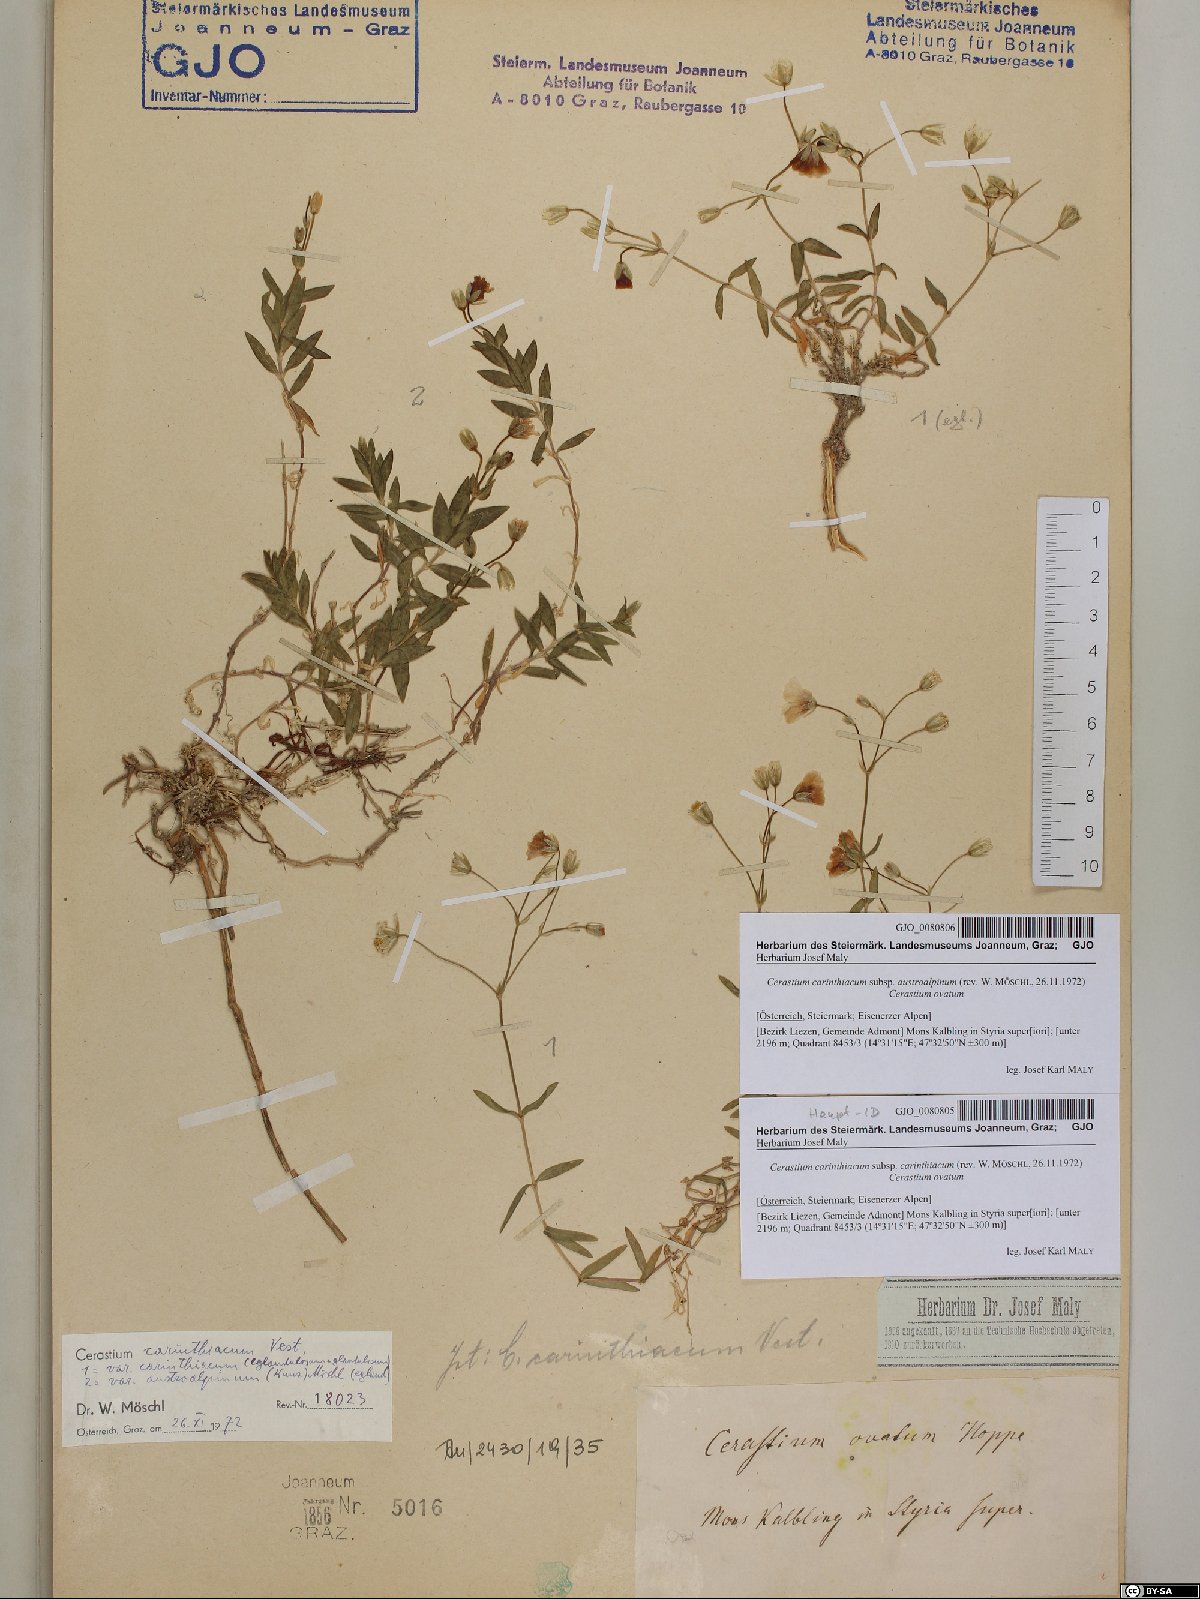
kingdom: Plantae
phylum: Tracheophyta
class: Magnoliopsida
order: Caryophyllales
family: Caryophyllaceae
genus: Cerastium
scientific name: Cerastium carinthiacum
